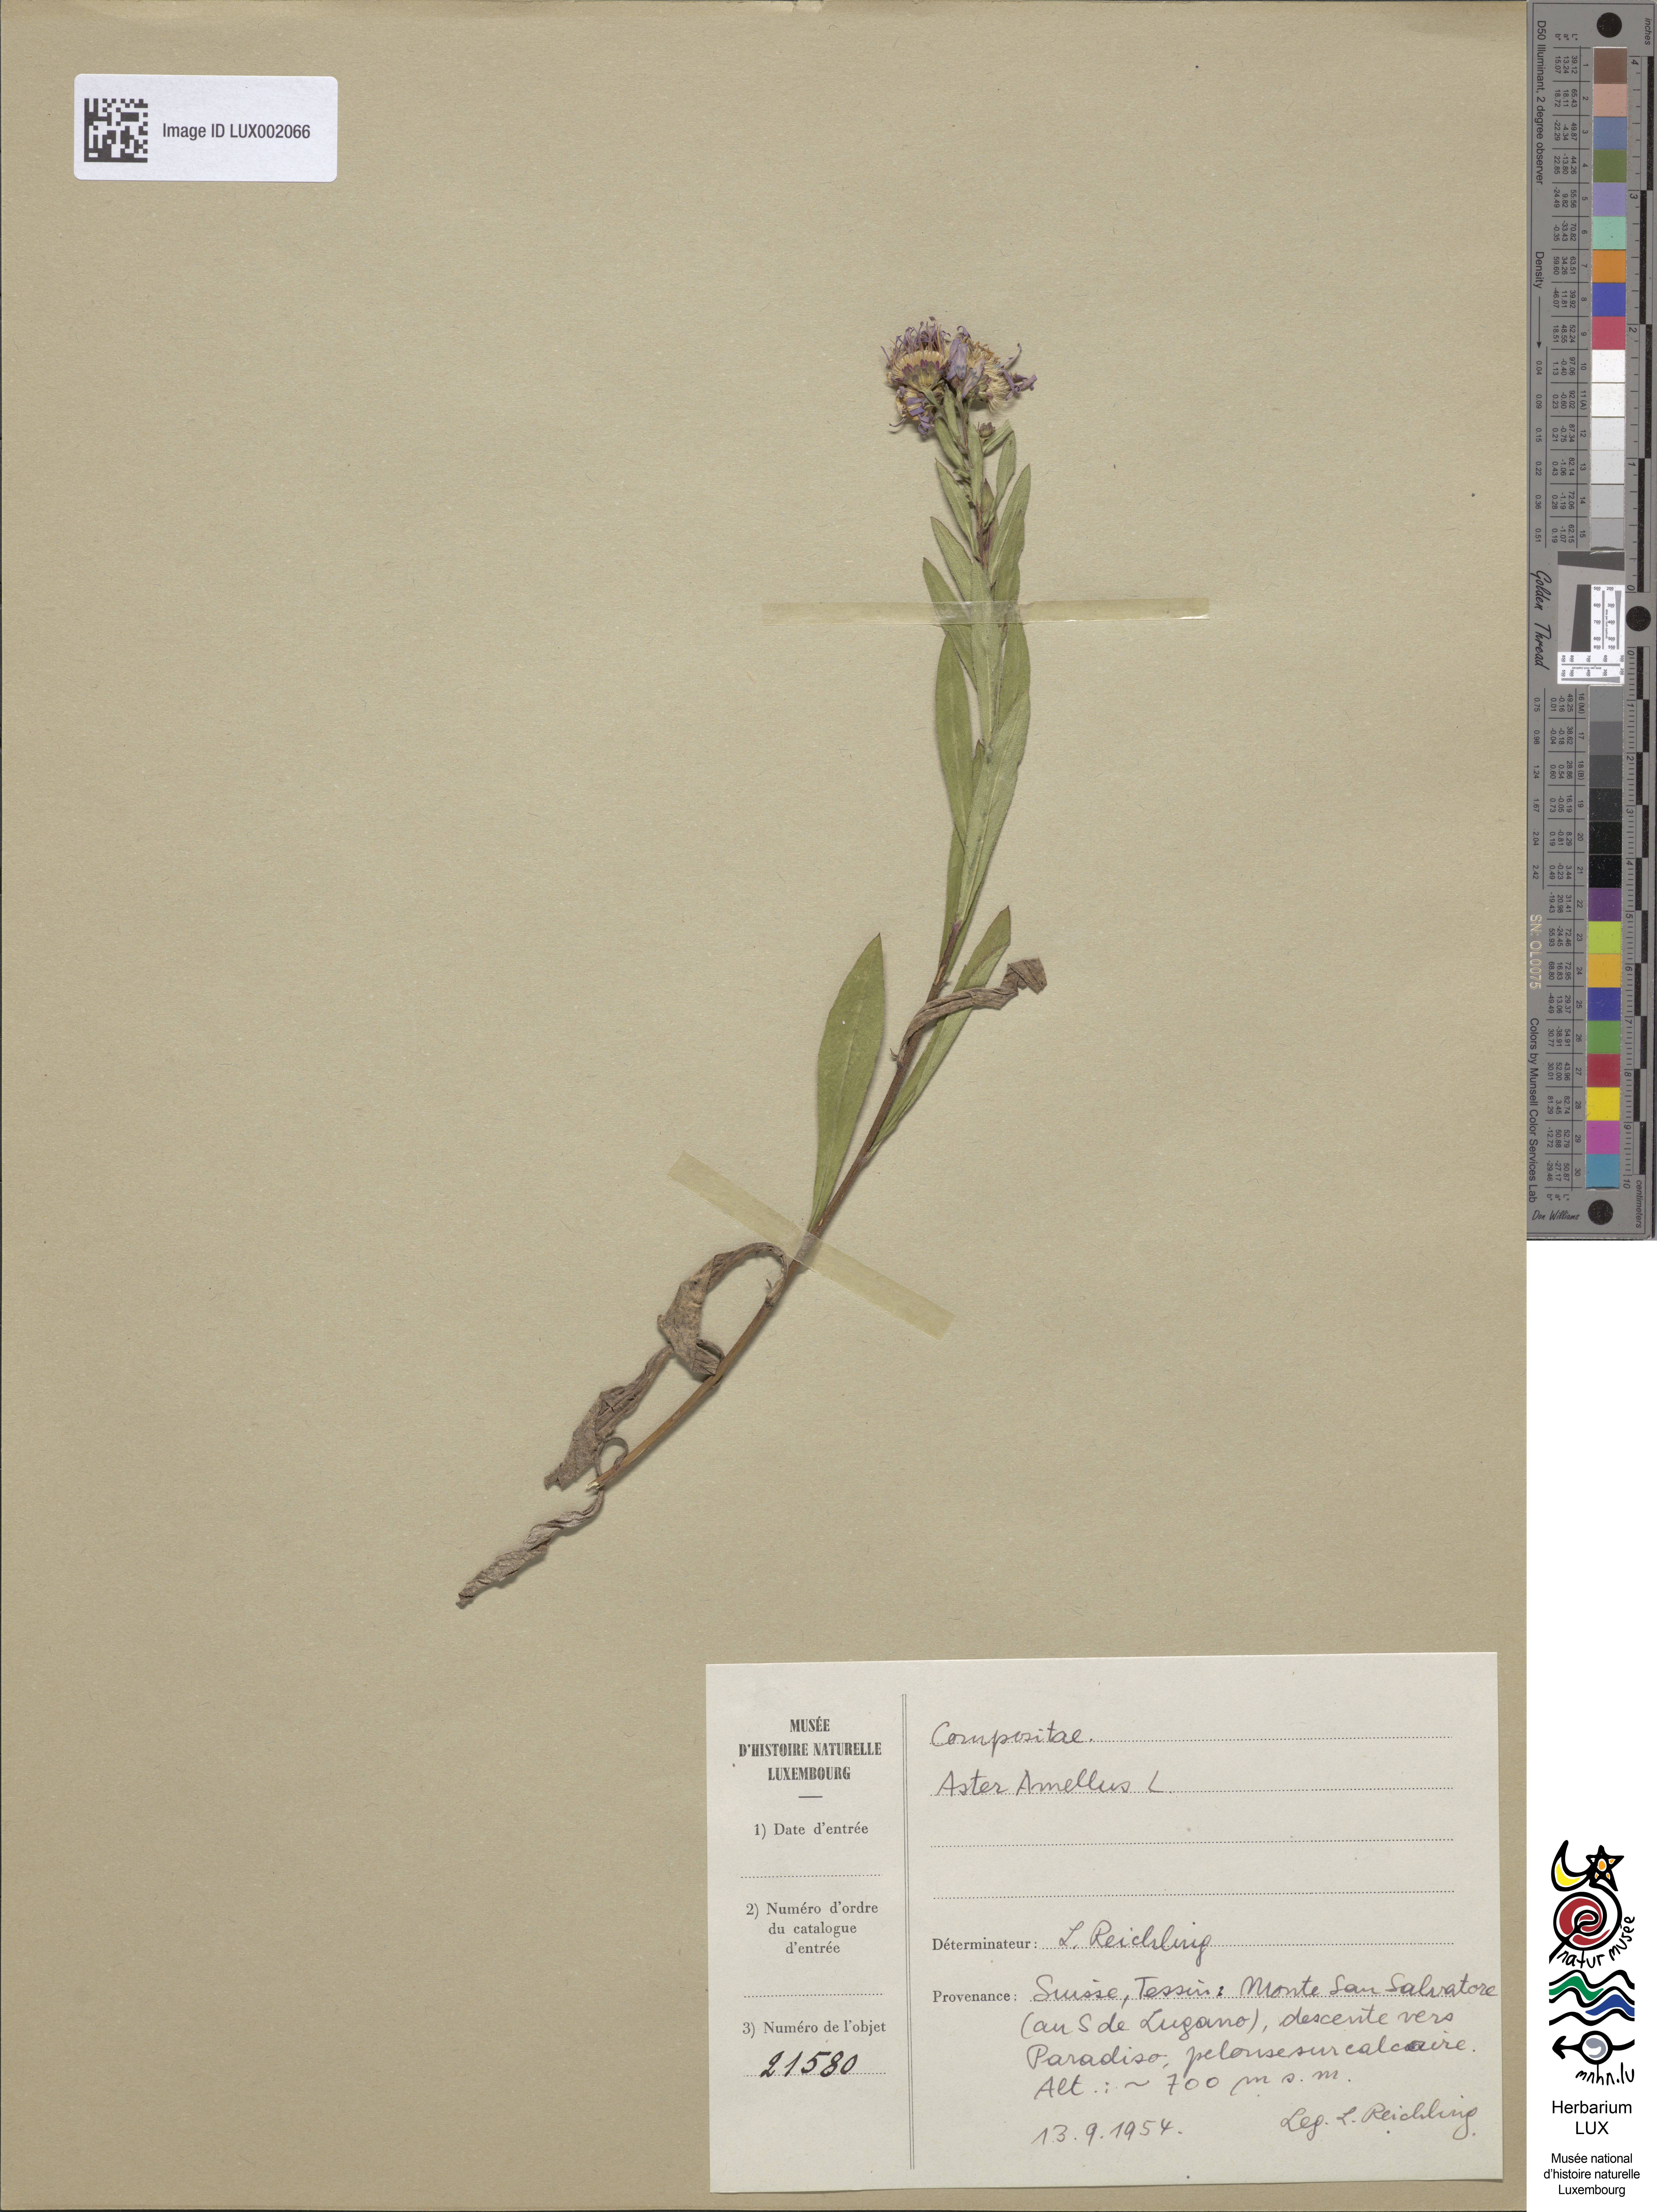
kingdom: Plantae
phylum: Tracheophyta
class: Magnoliopsida
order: Asterales
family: Asteraceae
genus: Aster
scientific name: Aster amellus
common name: European michaelmas daisy
